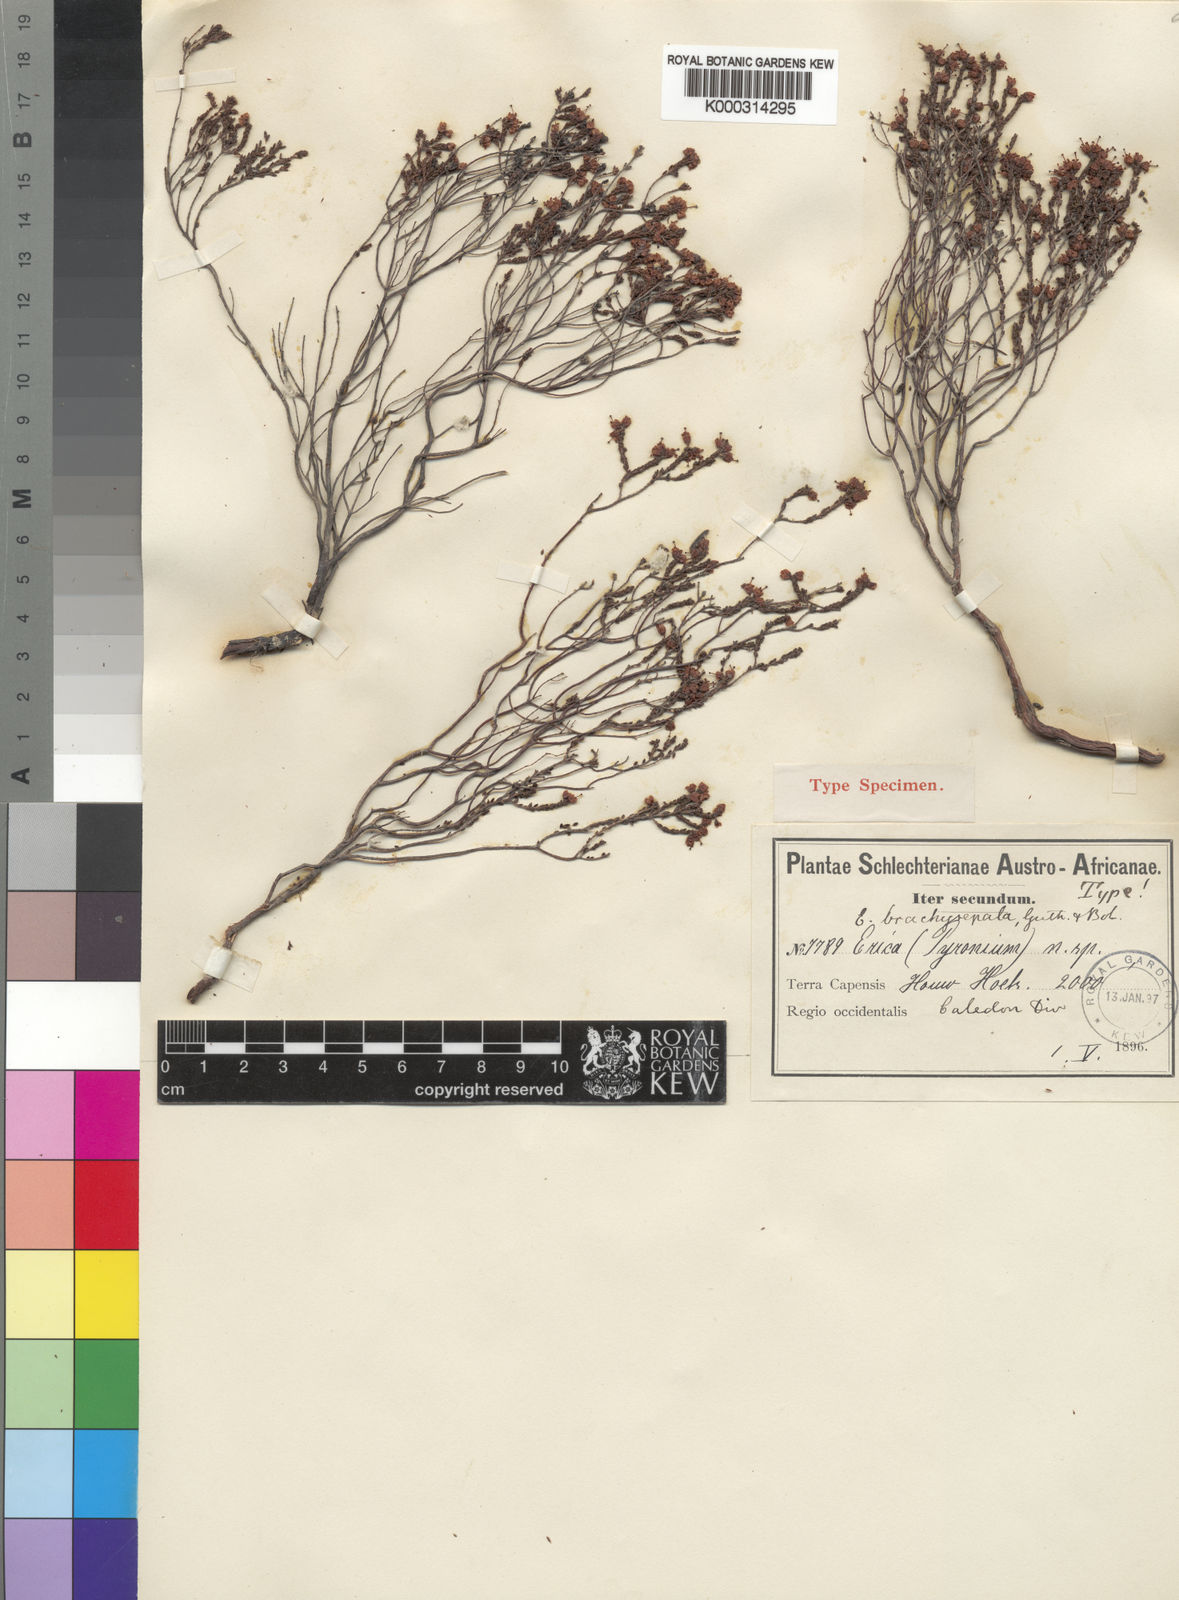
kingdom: Plantae
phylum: Tracheophyta
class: Magnoliopsida
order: Ericales
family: Ericaceae
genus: Erica
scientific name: Erica brachysepala
